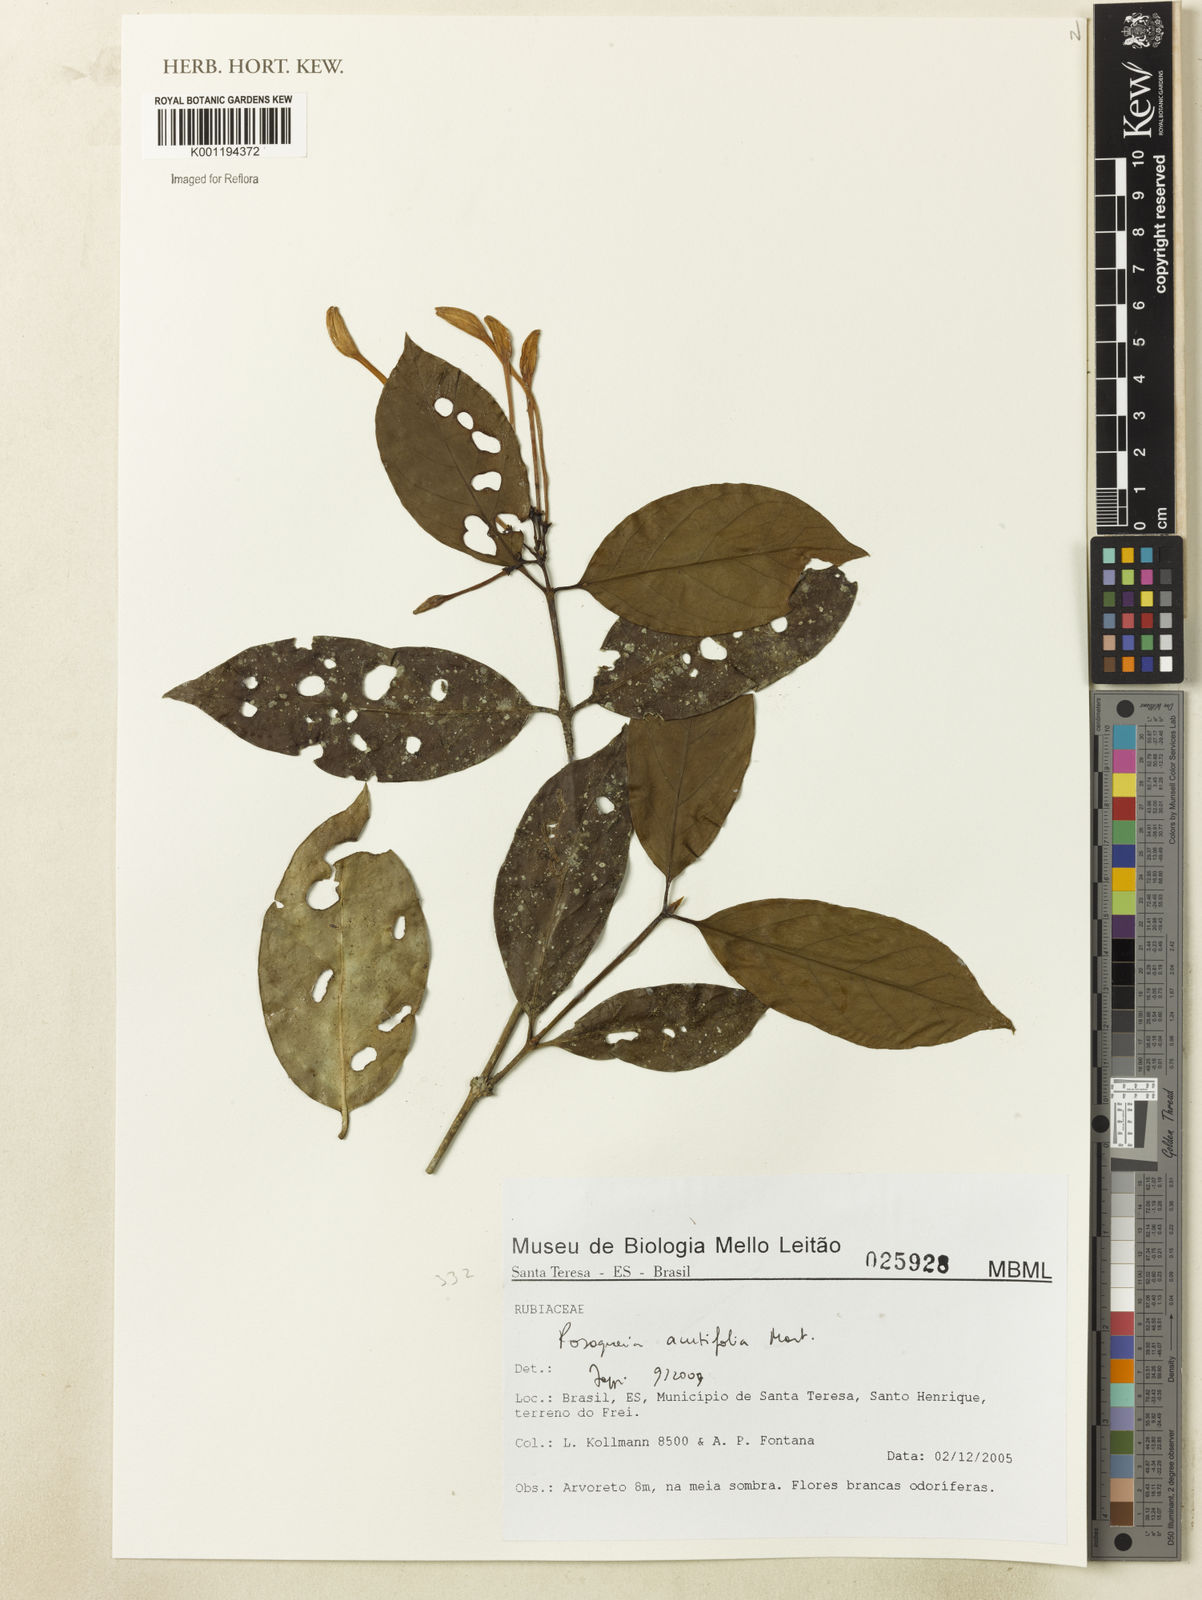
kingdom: Plantae
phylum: Tracheophyta
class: Magnoliopsida
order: Gentianales
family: Rubiaceae
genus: Posoqueria
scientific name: Posoqueria acutifolia
